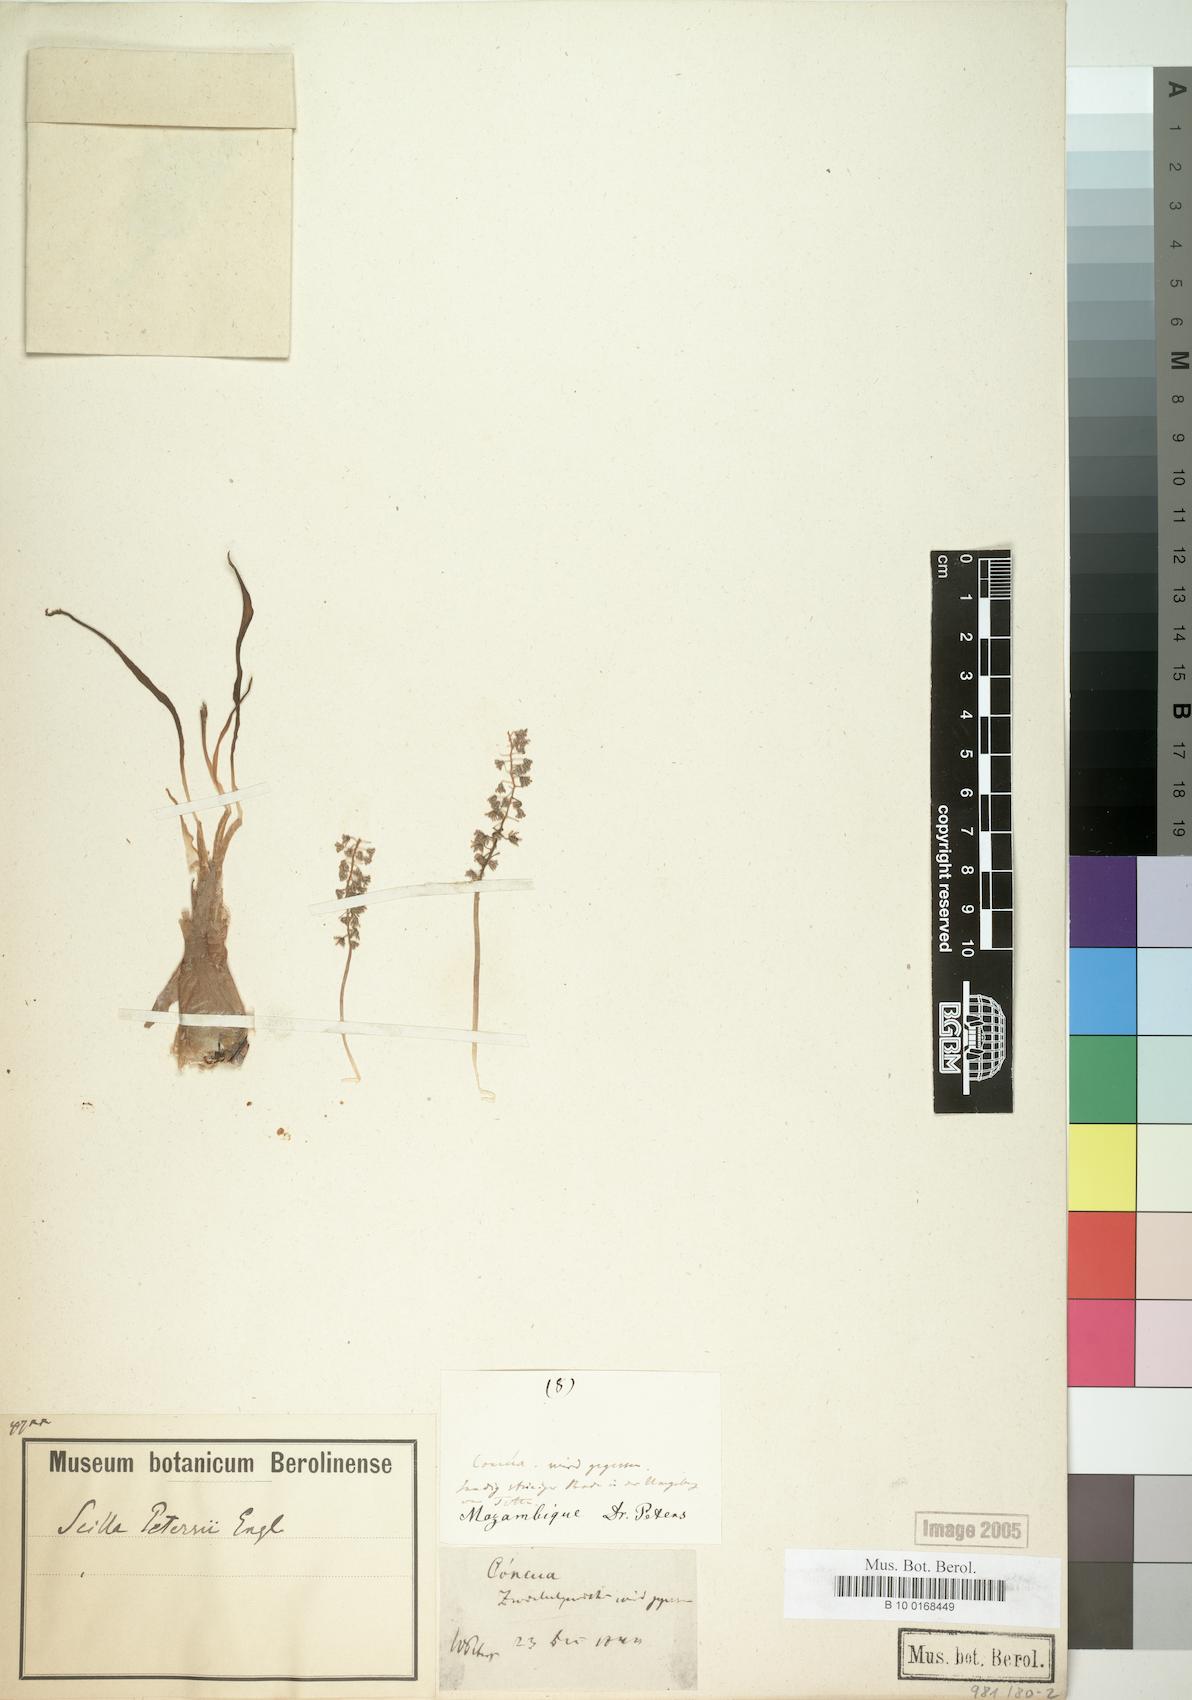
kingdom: Plantae
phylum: Tracheophyta
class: Liliopsida
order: Asparagales
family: Asparagaceae
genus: Scilla
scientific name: Scilla petersii
